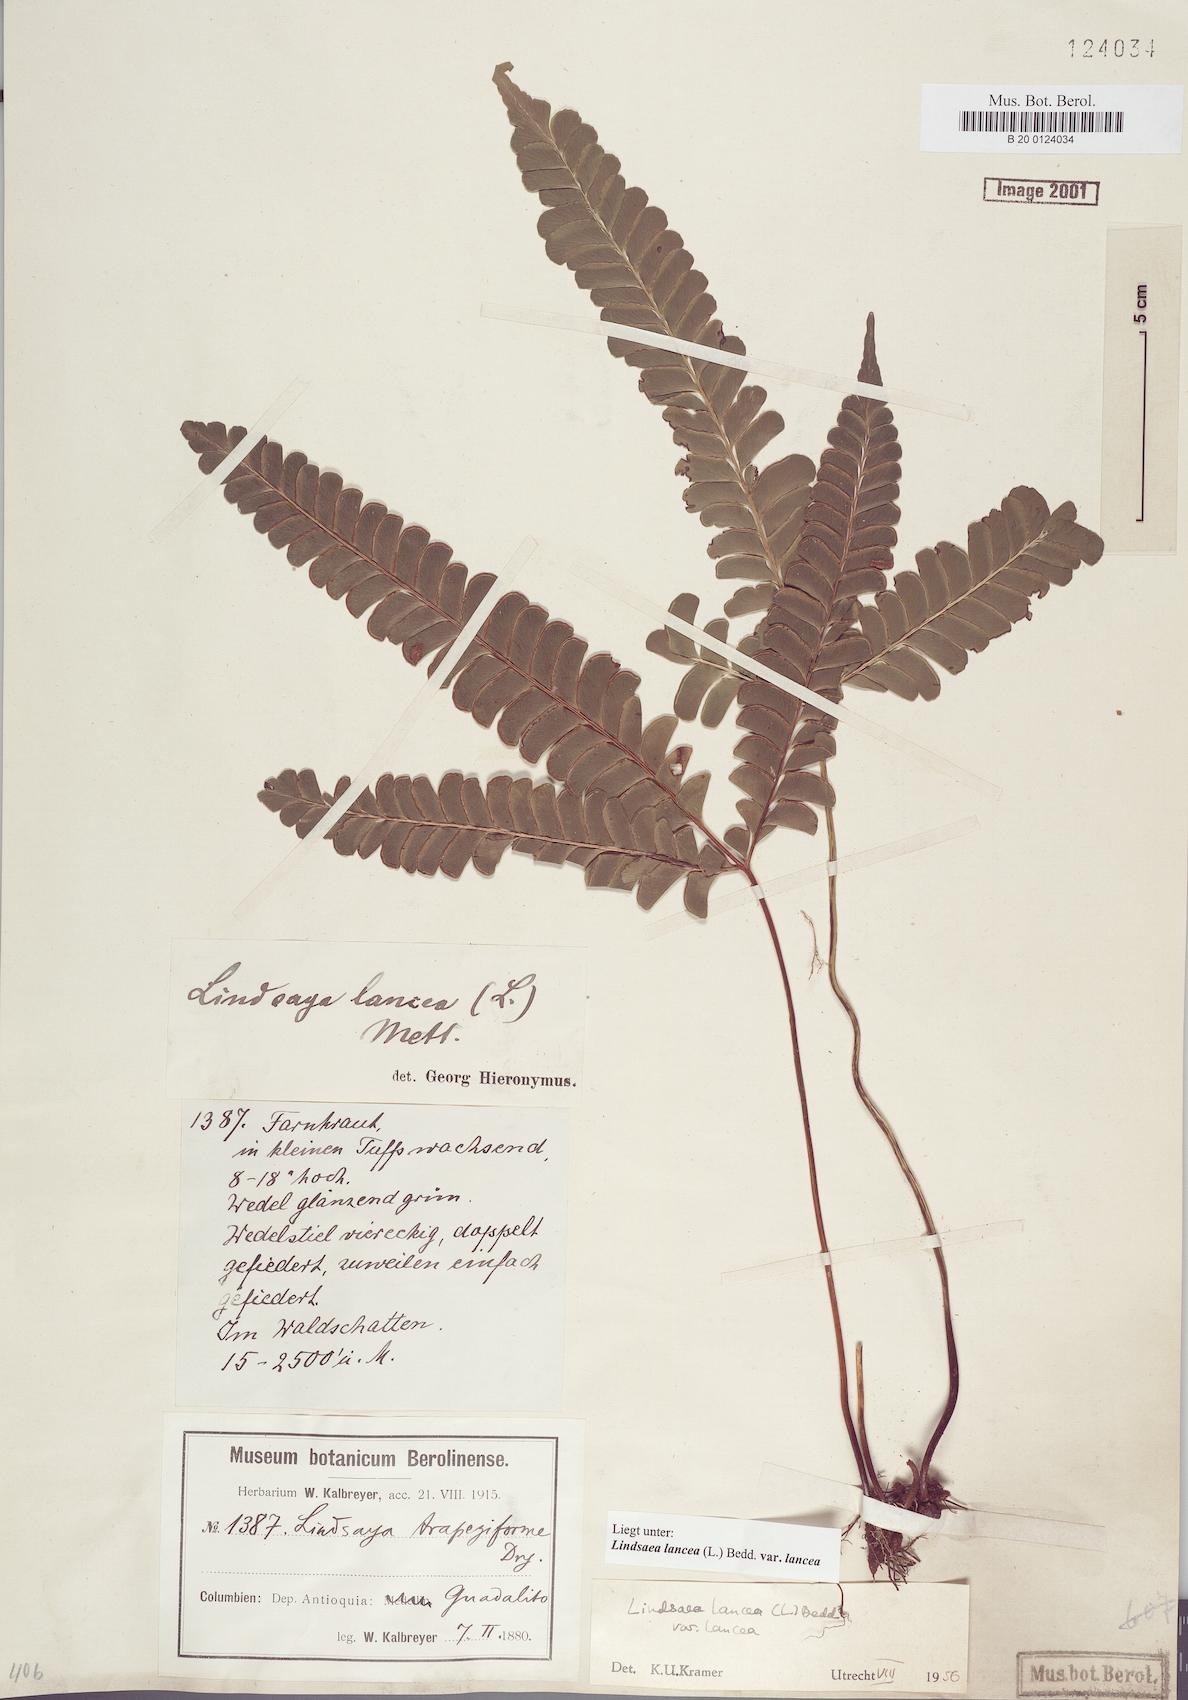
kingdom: Plantae
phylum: Tracheophyta
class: Polypodiopsida
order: Polypodiales
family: Lindsaeaceae
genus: Lindsaea
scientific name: Lindsaea lancea
